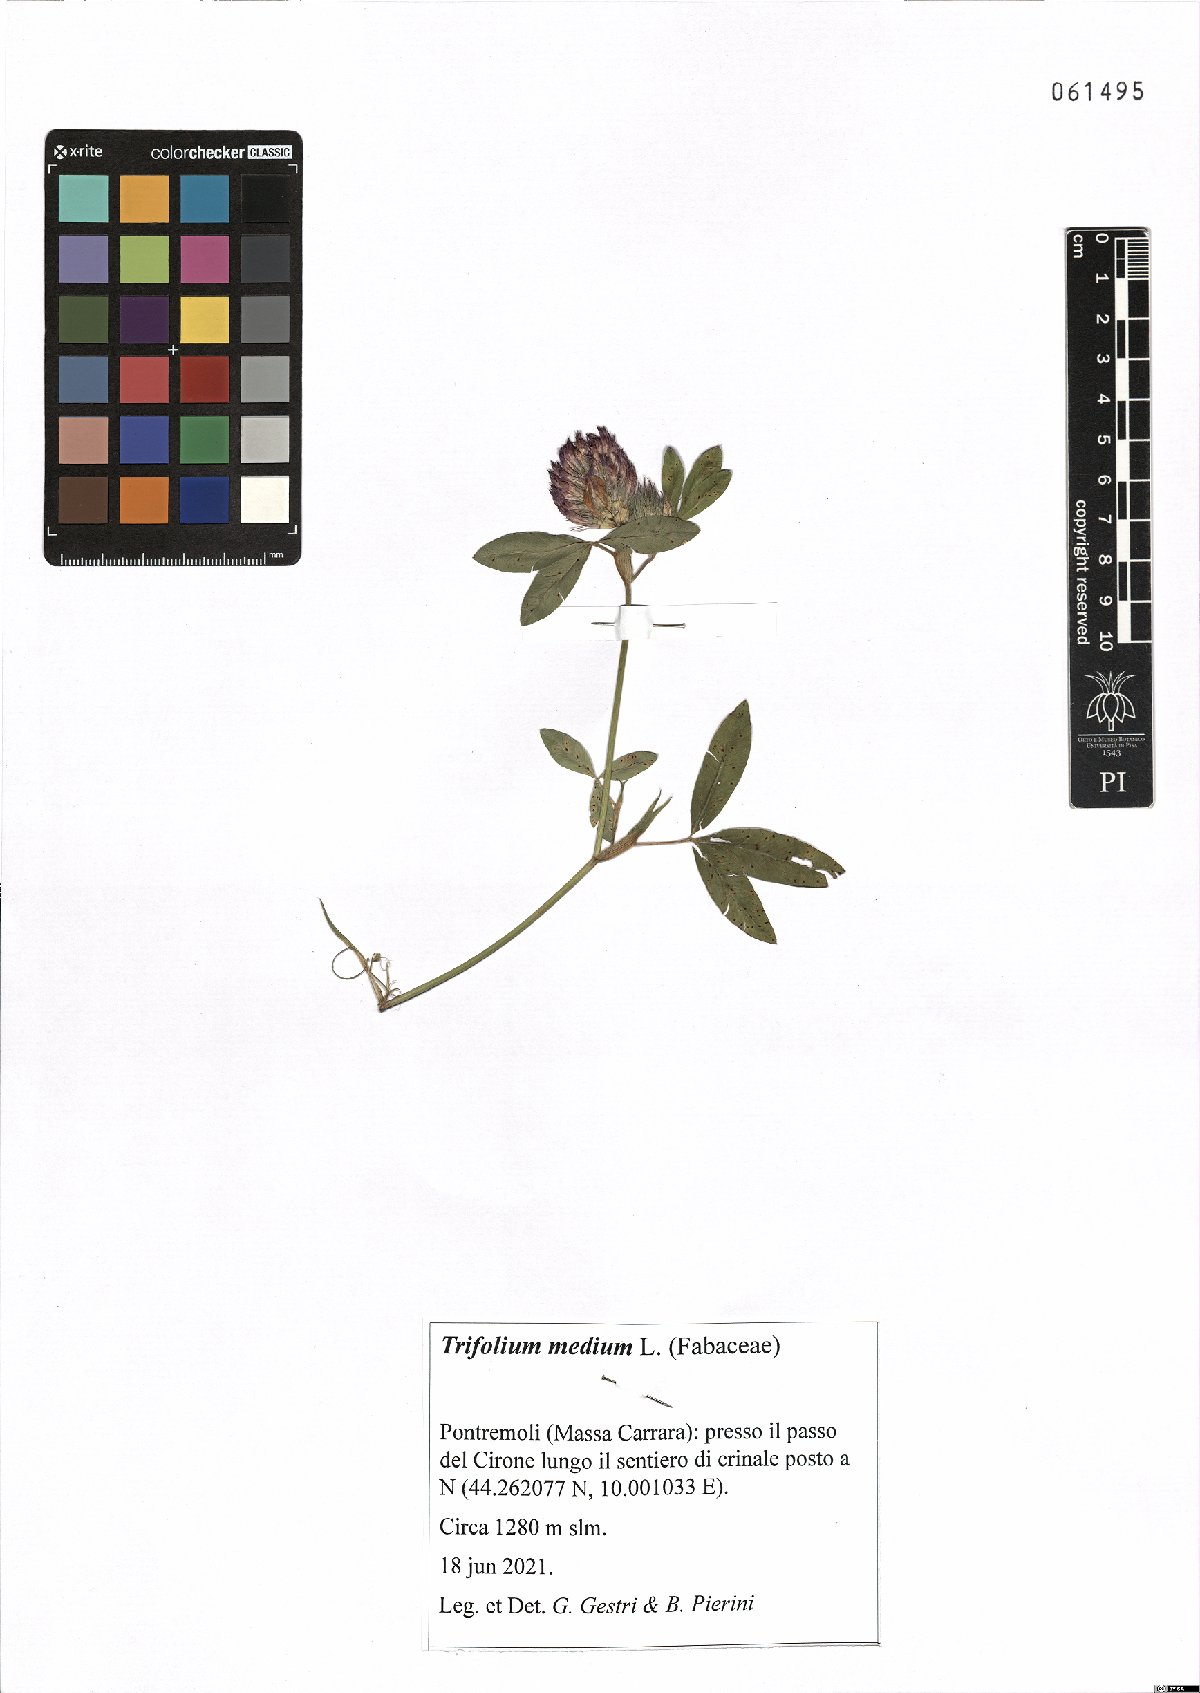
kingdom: Plantae
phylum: Tracheophyta
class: Magnoliopsida
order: Fabales
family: Fabaceae
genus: Trifolium
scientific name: Trifolium medium
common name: Zigzag clover
